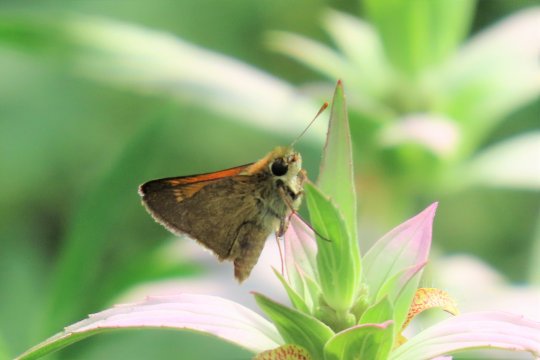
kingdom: Animalia
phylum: Arthropoda
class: Insecta
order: Lepidoptera
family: Hesperiidae
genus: Polites
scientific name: Polites themistocles
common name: Tawny-edged Skipper
